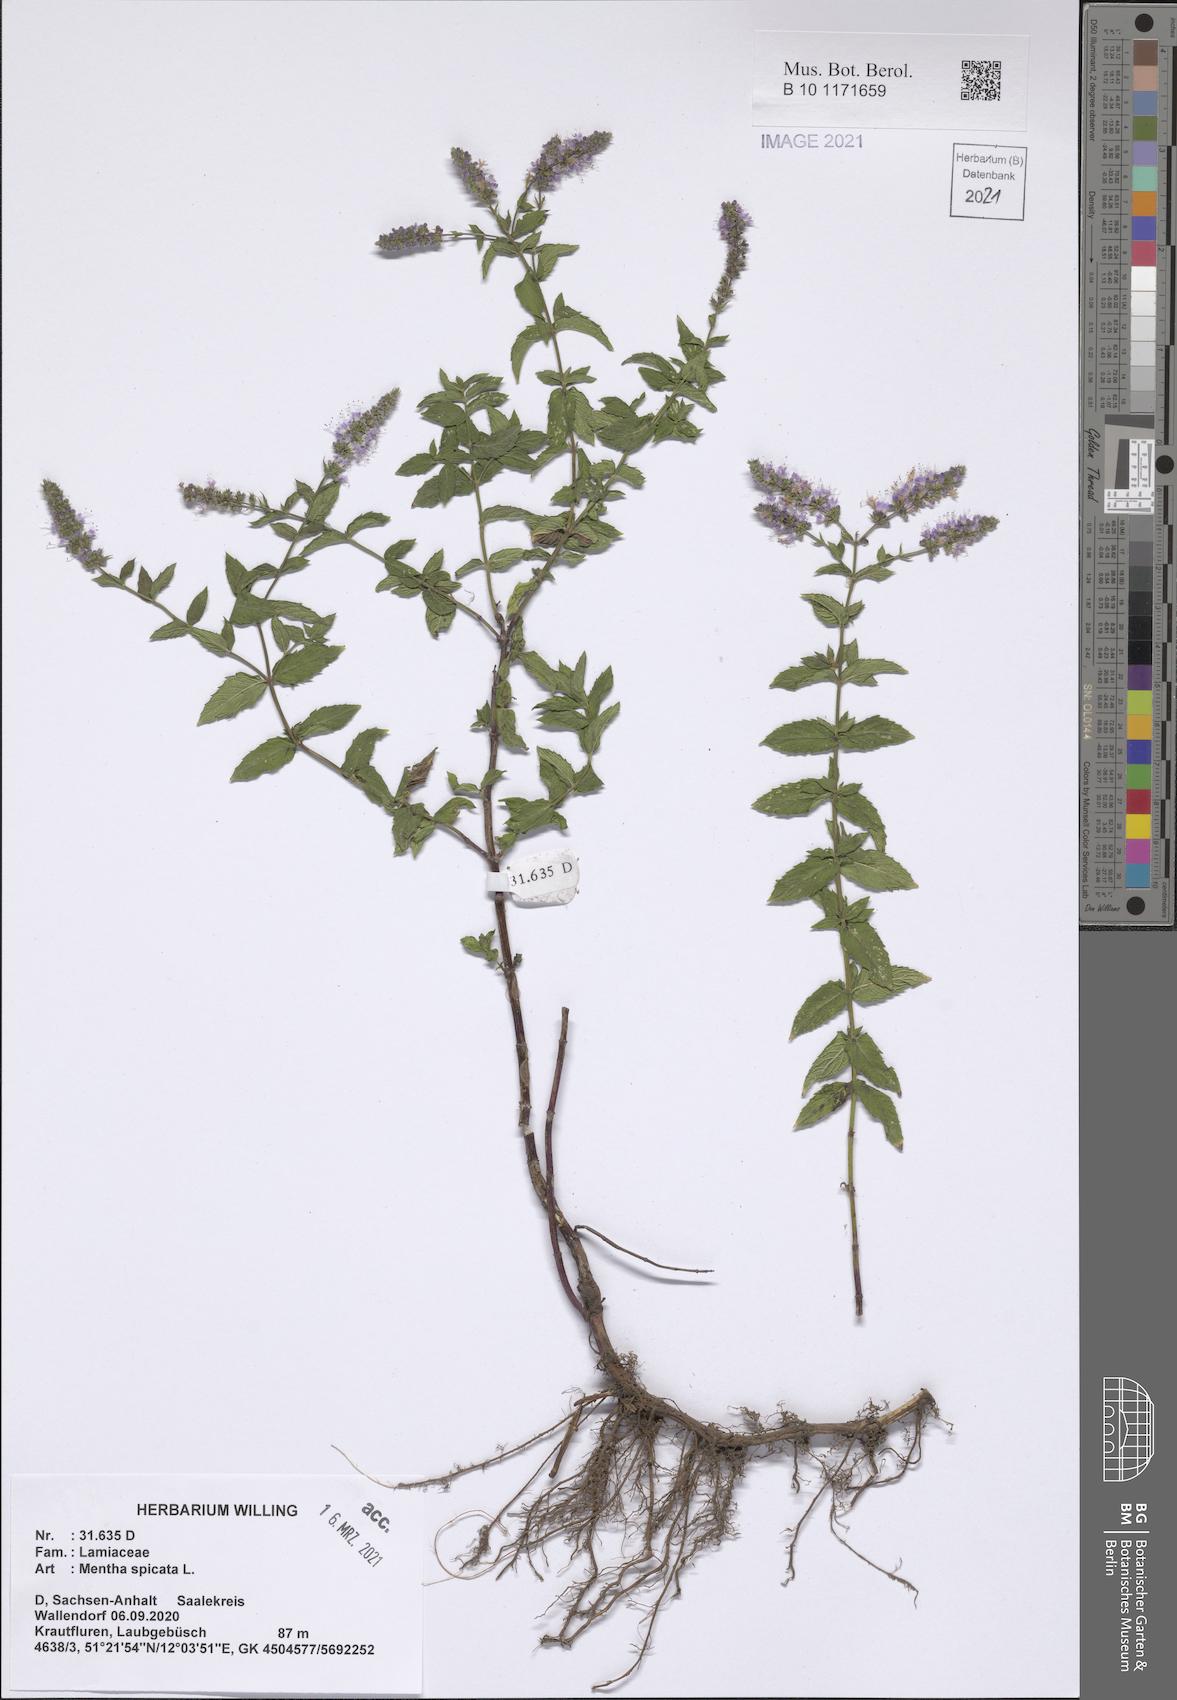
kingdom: Plantae
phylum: Tracheophyta
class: Magnoliopsida
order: Lamiales
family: Lamiaceae
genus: Mentha
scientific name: Mentha spicata
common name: Spearmint
